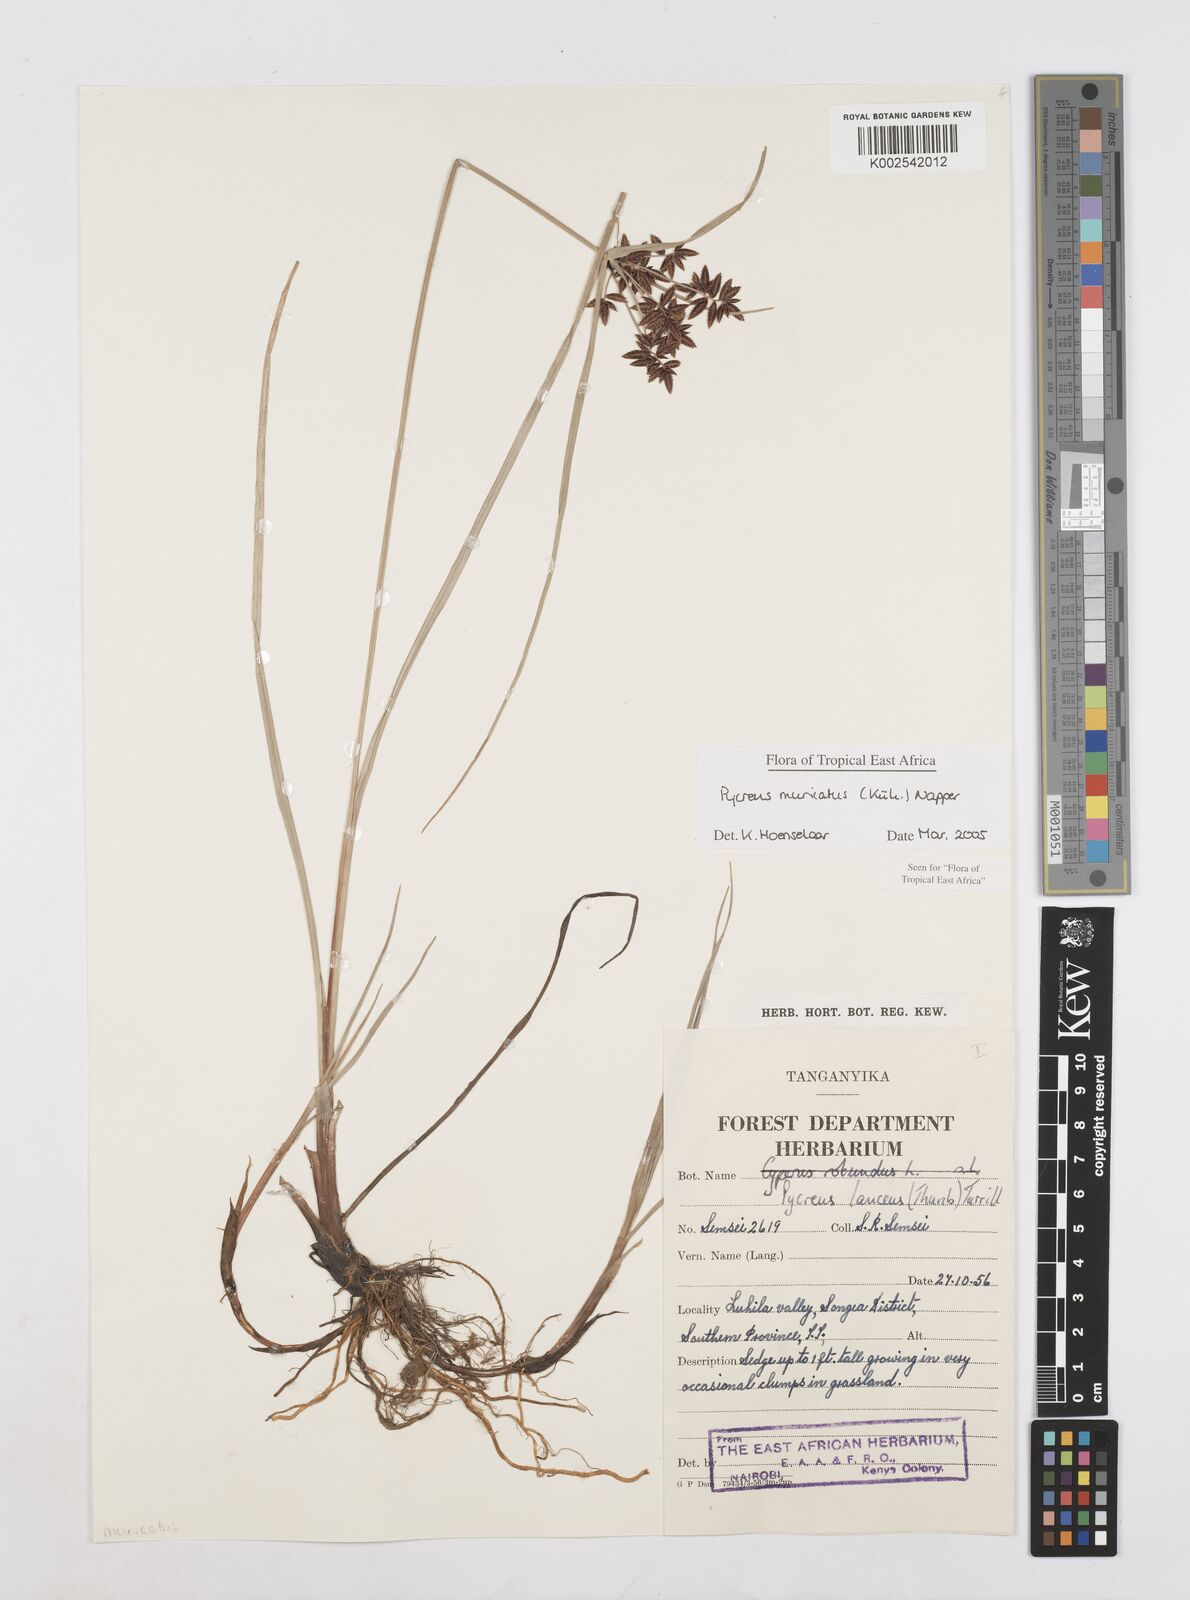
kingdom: Plantae
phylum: Tracheophyta
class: Liliopsida
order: Poales
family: Cyperaceae
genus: Cyperus
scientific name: Cyperus nigricans
